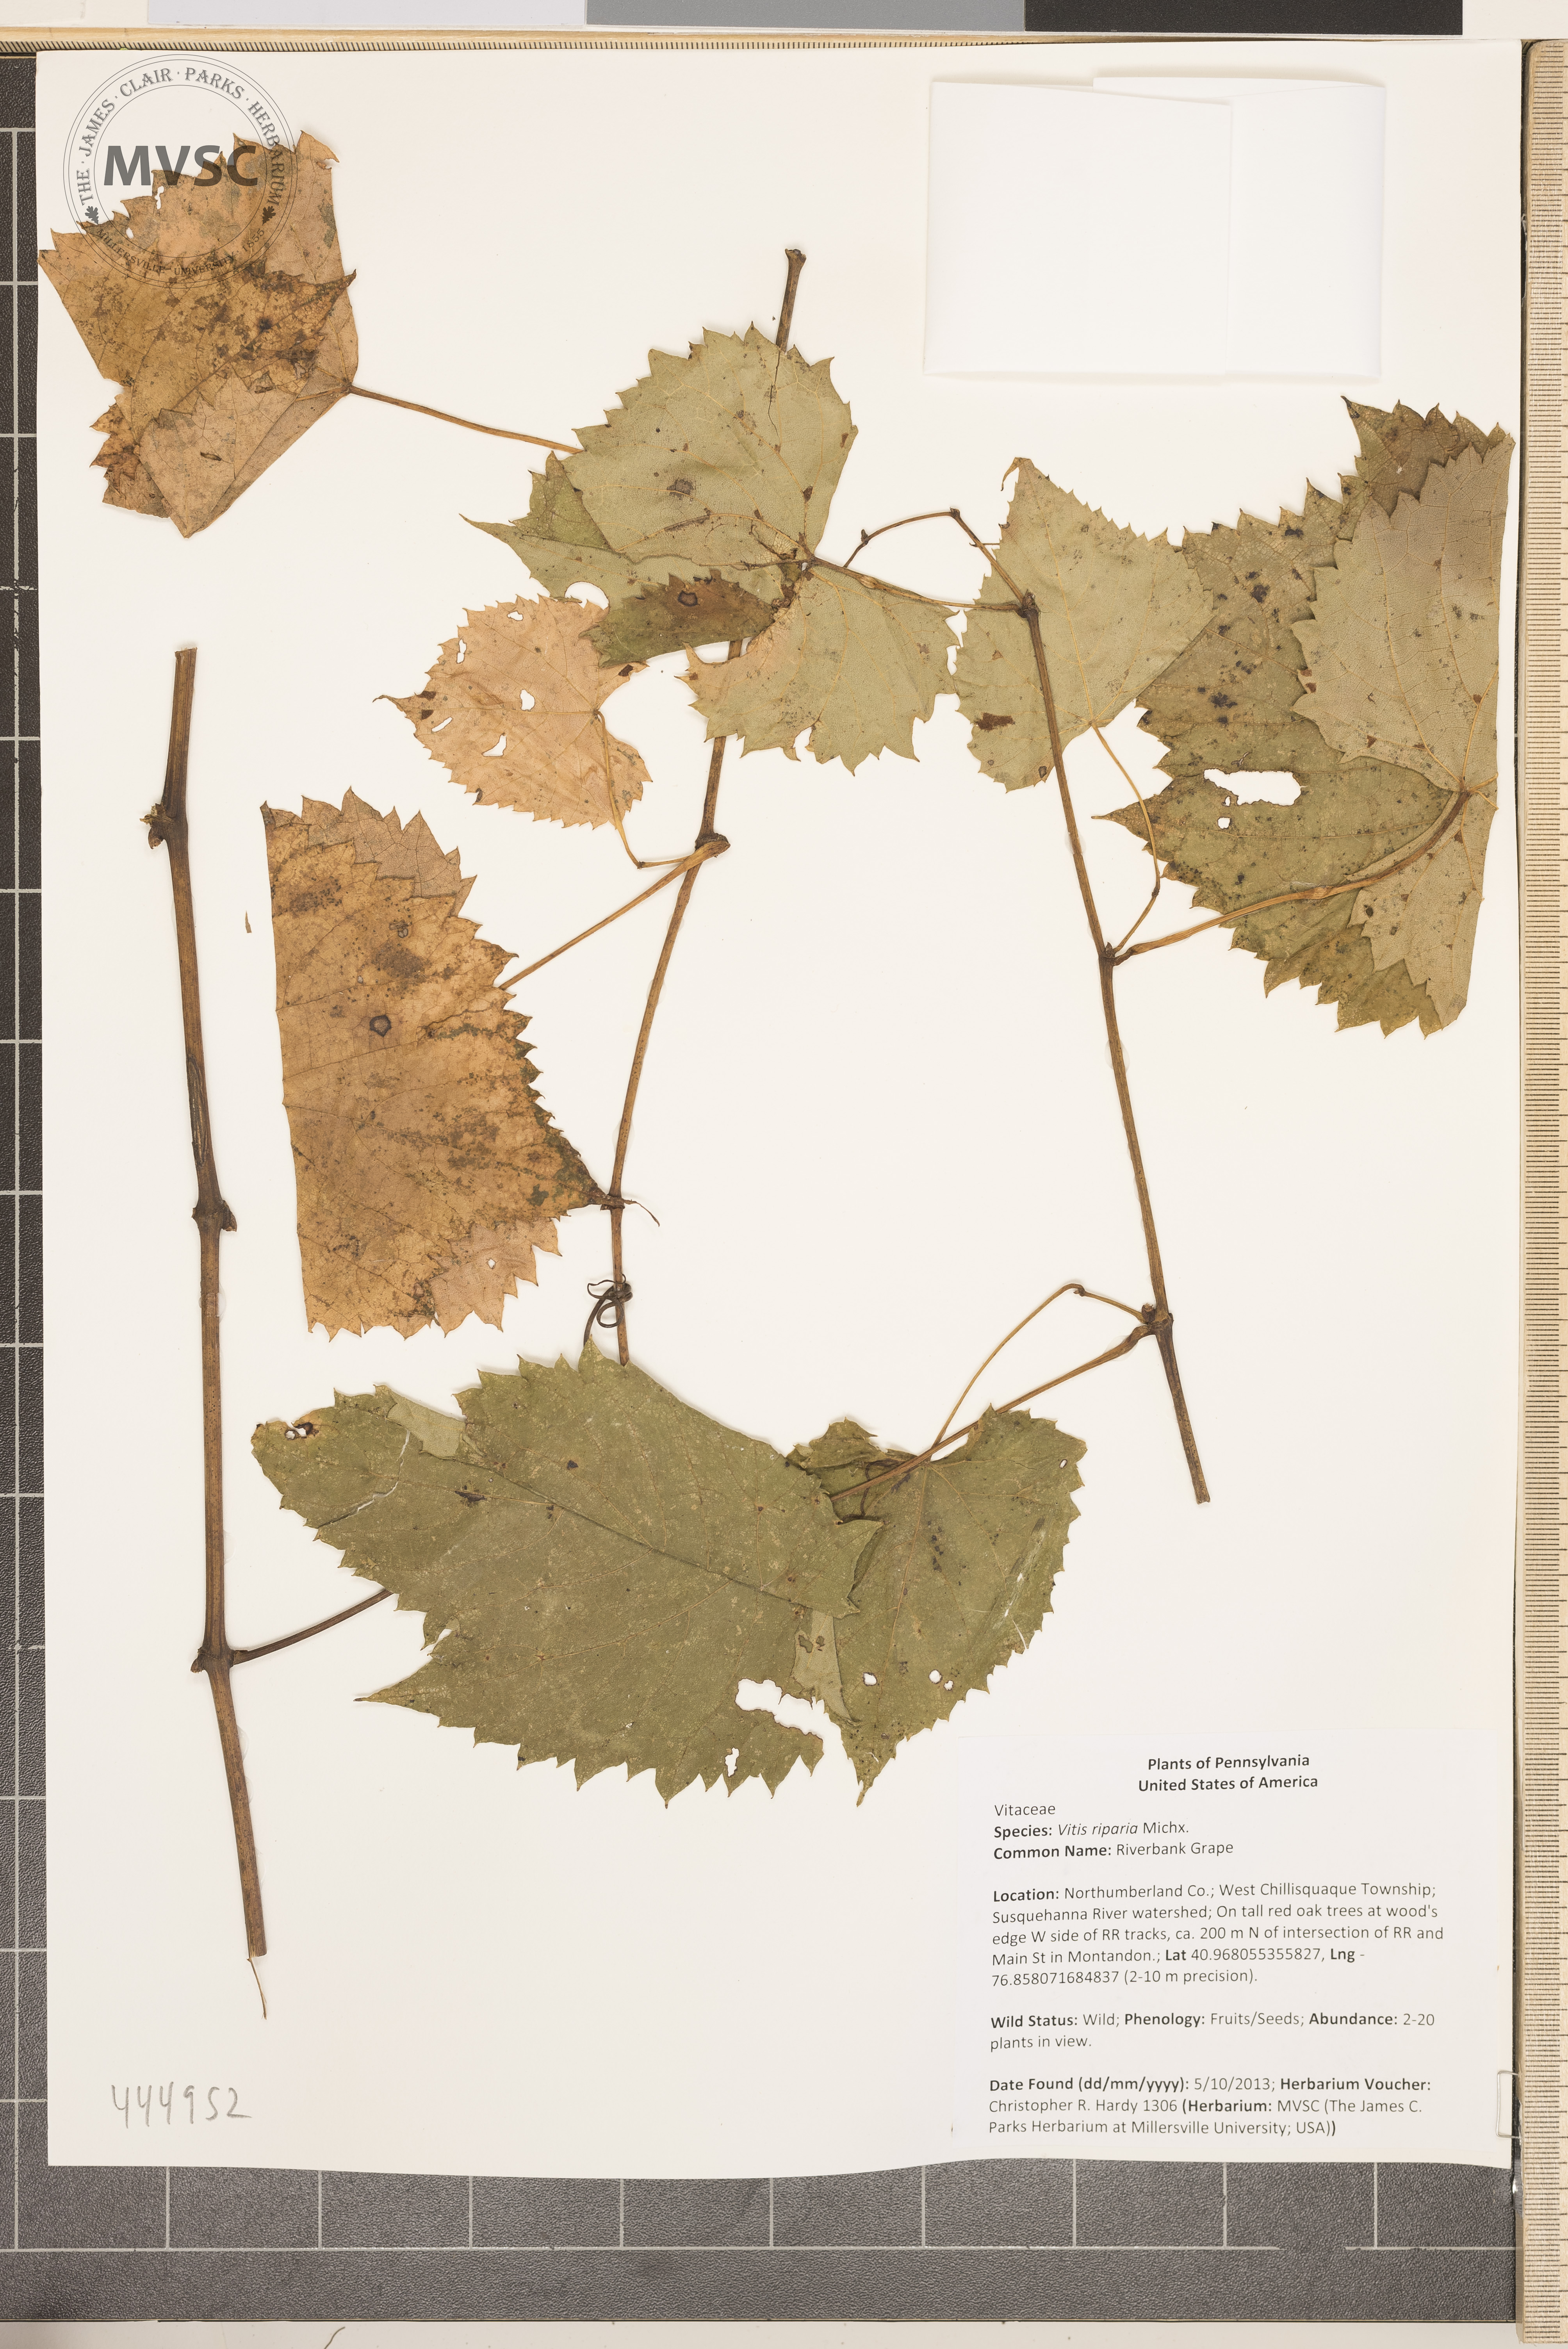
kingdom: Plantae
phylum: Tracheophyta
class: Magnoliopsida
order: Vitales
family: Vitaceae
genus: Vitis
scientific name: Vitis riparia
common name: Riverbank Grape
